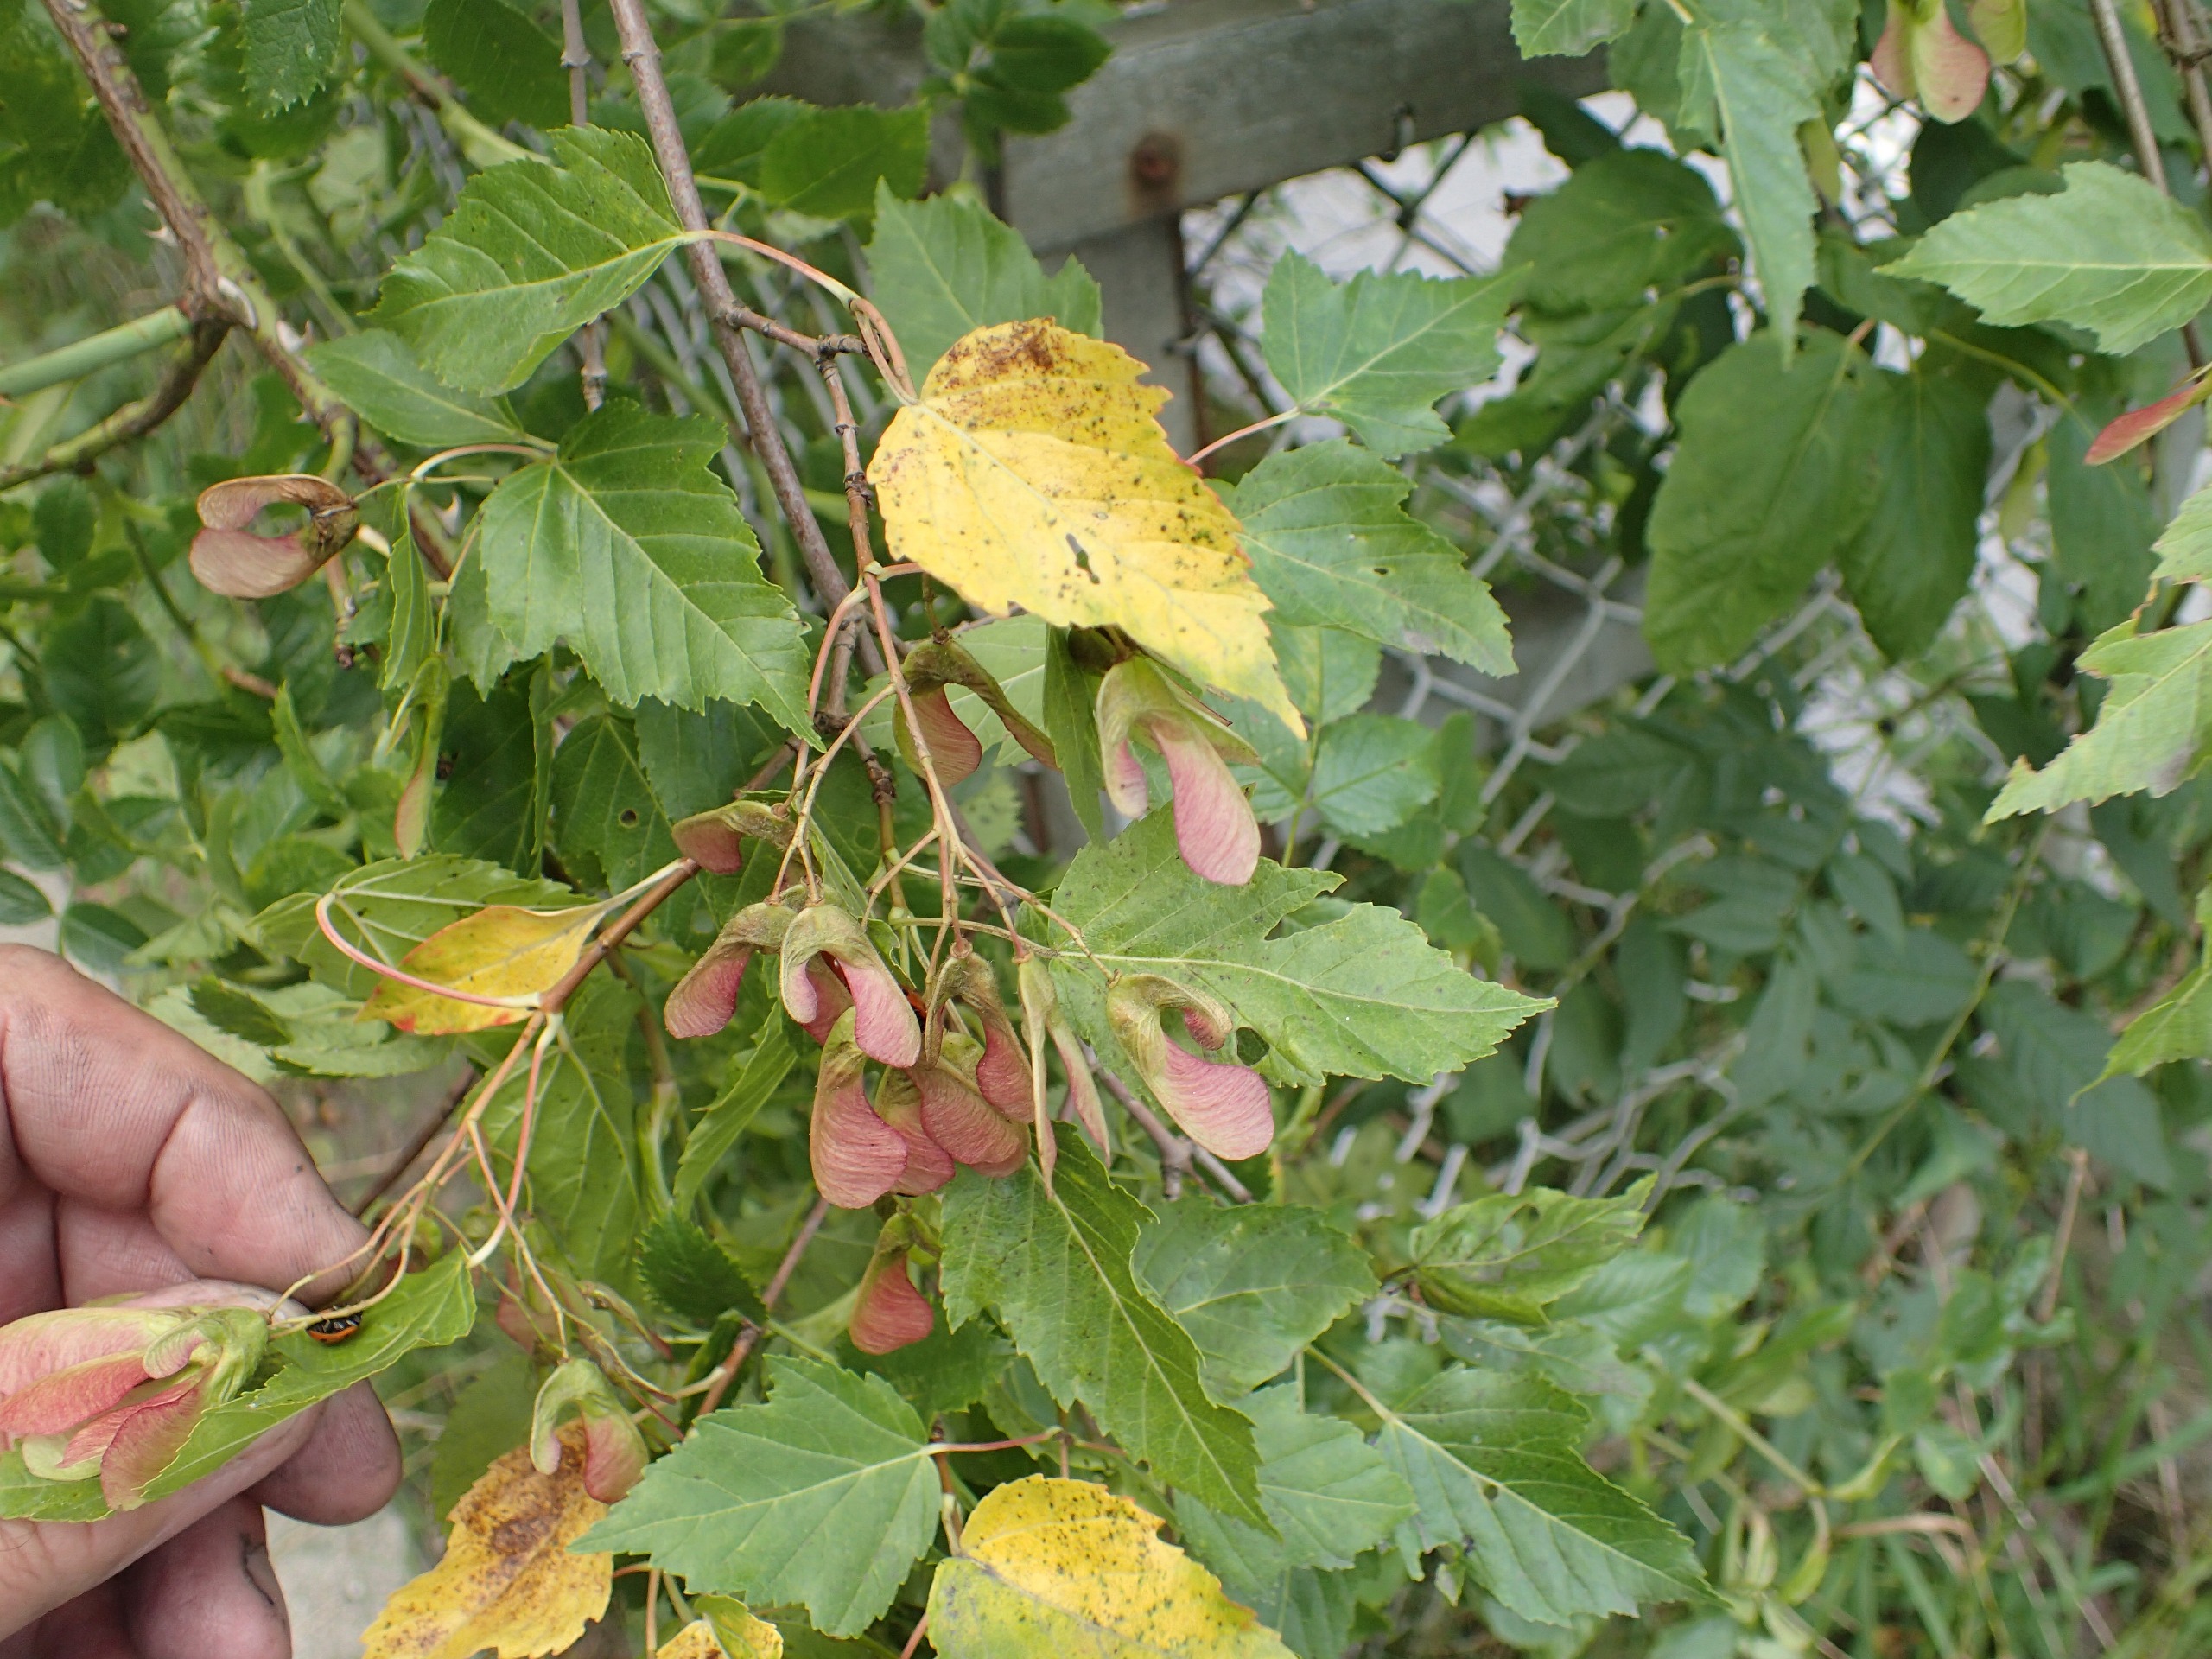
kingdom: Plantae
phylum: Tracheophyta
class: Magnoliopsida
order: Sapindales
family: Sapindaceae
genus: Acer
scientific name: Acer tataricum
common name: Ild-løn
